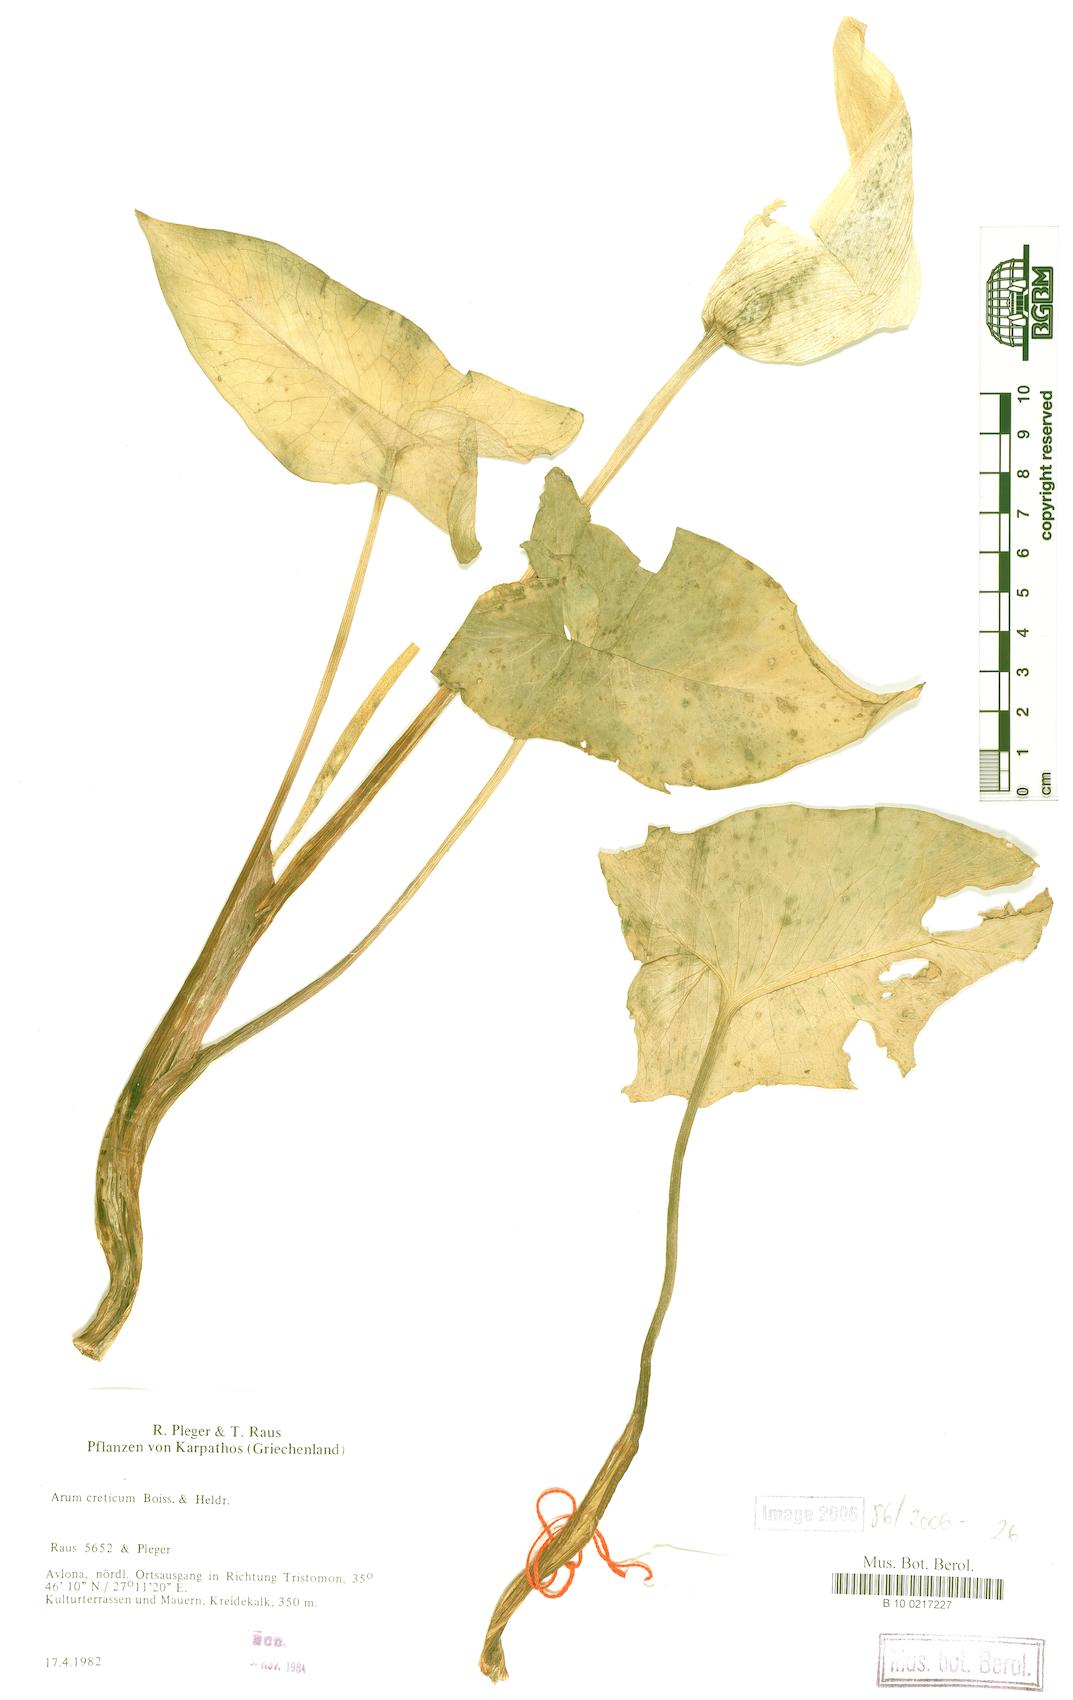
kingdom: Plantae
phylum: Tracheophyta
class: Liliopsida
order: Alismatales
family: Araceae
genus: Arum
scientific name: Arum creticum
